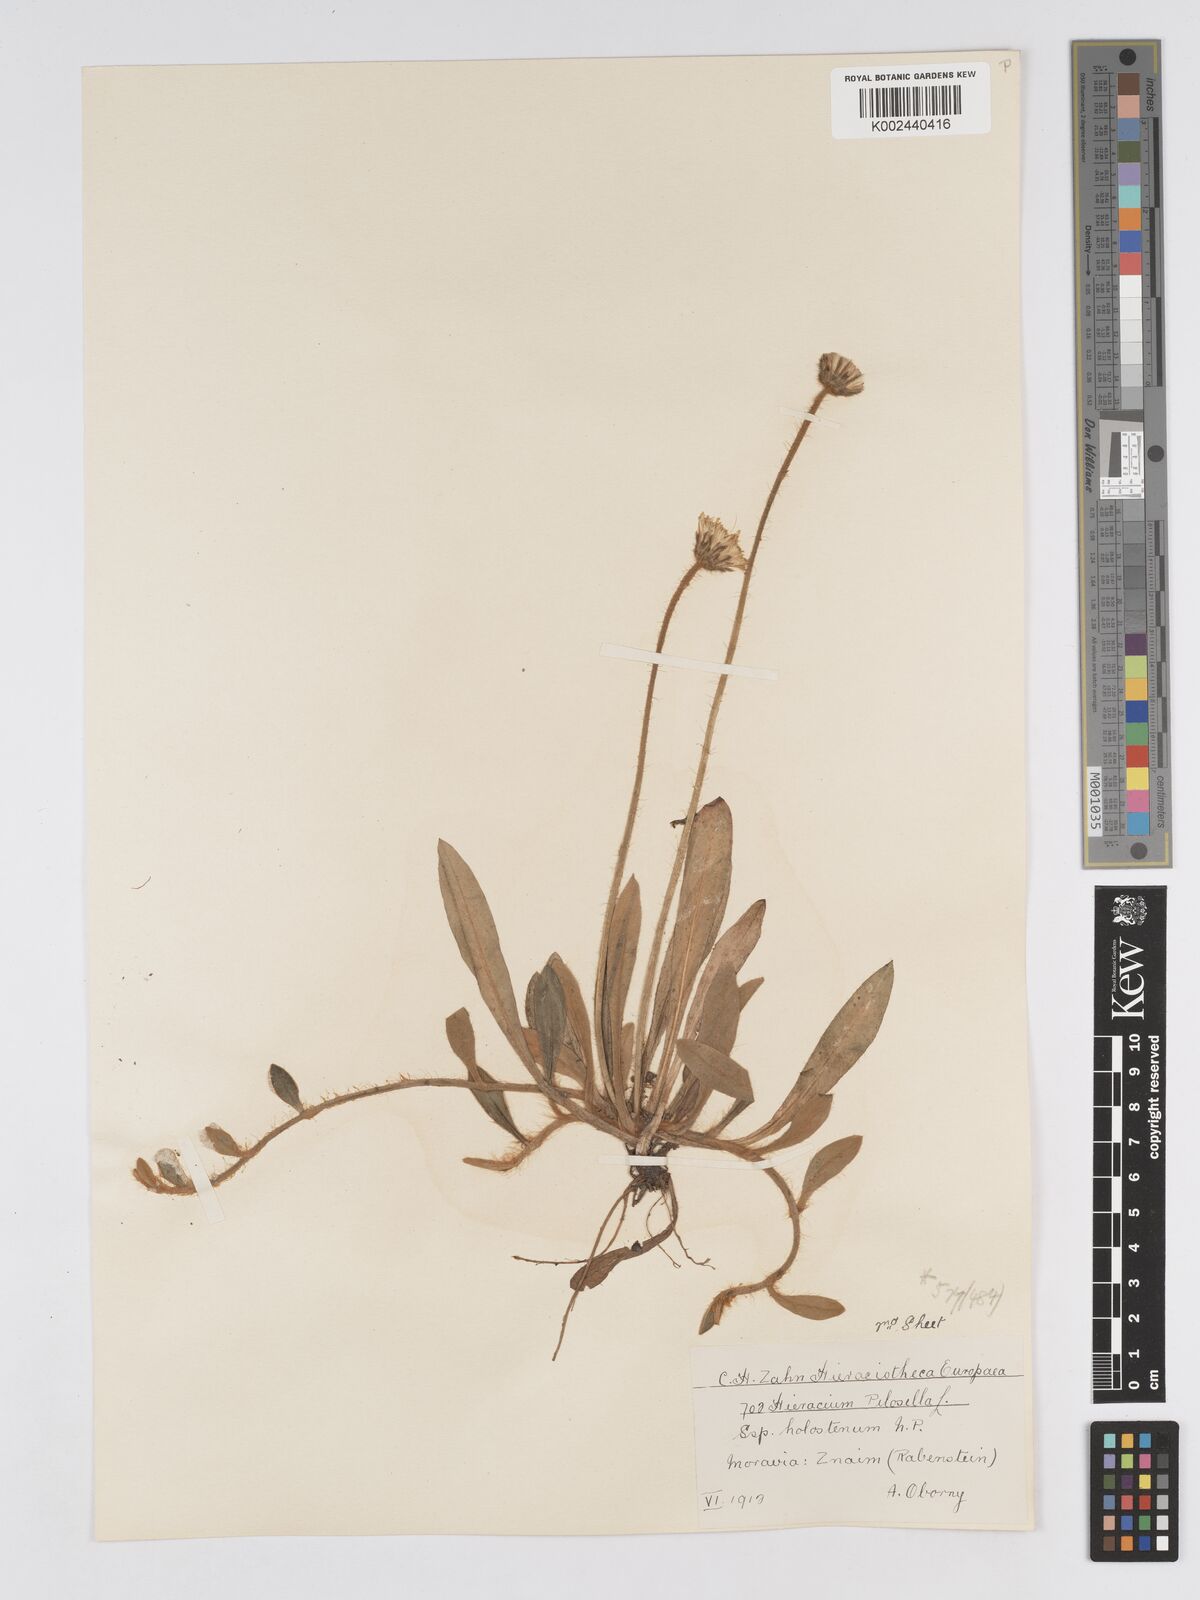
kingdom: Plantae
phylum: Tracheophyta
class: Magnoliopsida
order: Asterales
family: Asteraceae
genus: Pilosella
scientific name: Pilosella officinarum
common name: Mouse-ear hawkweed
